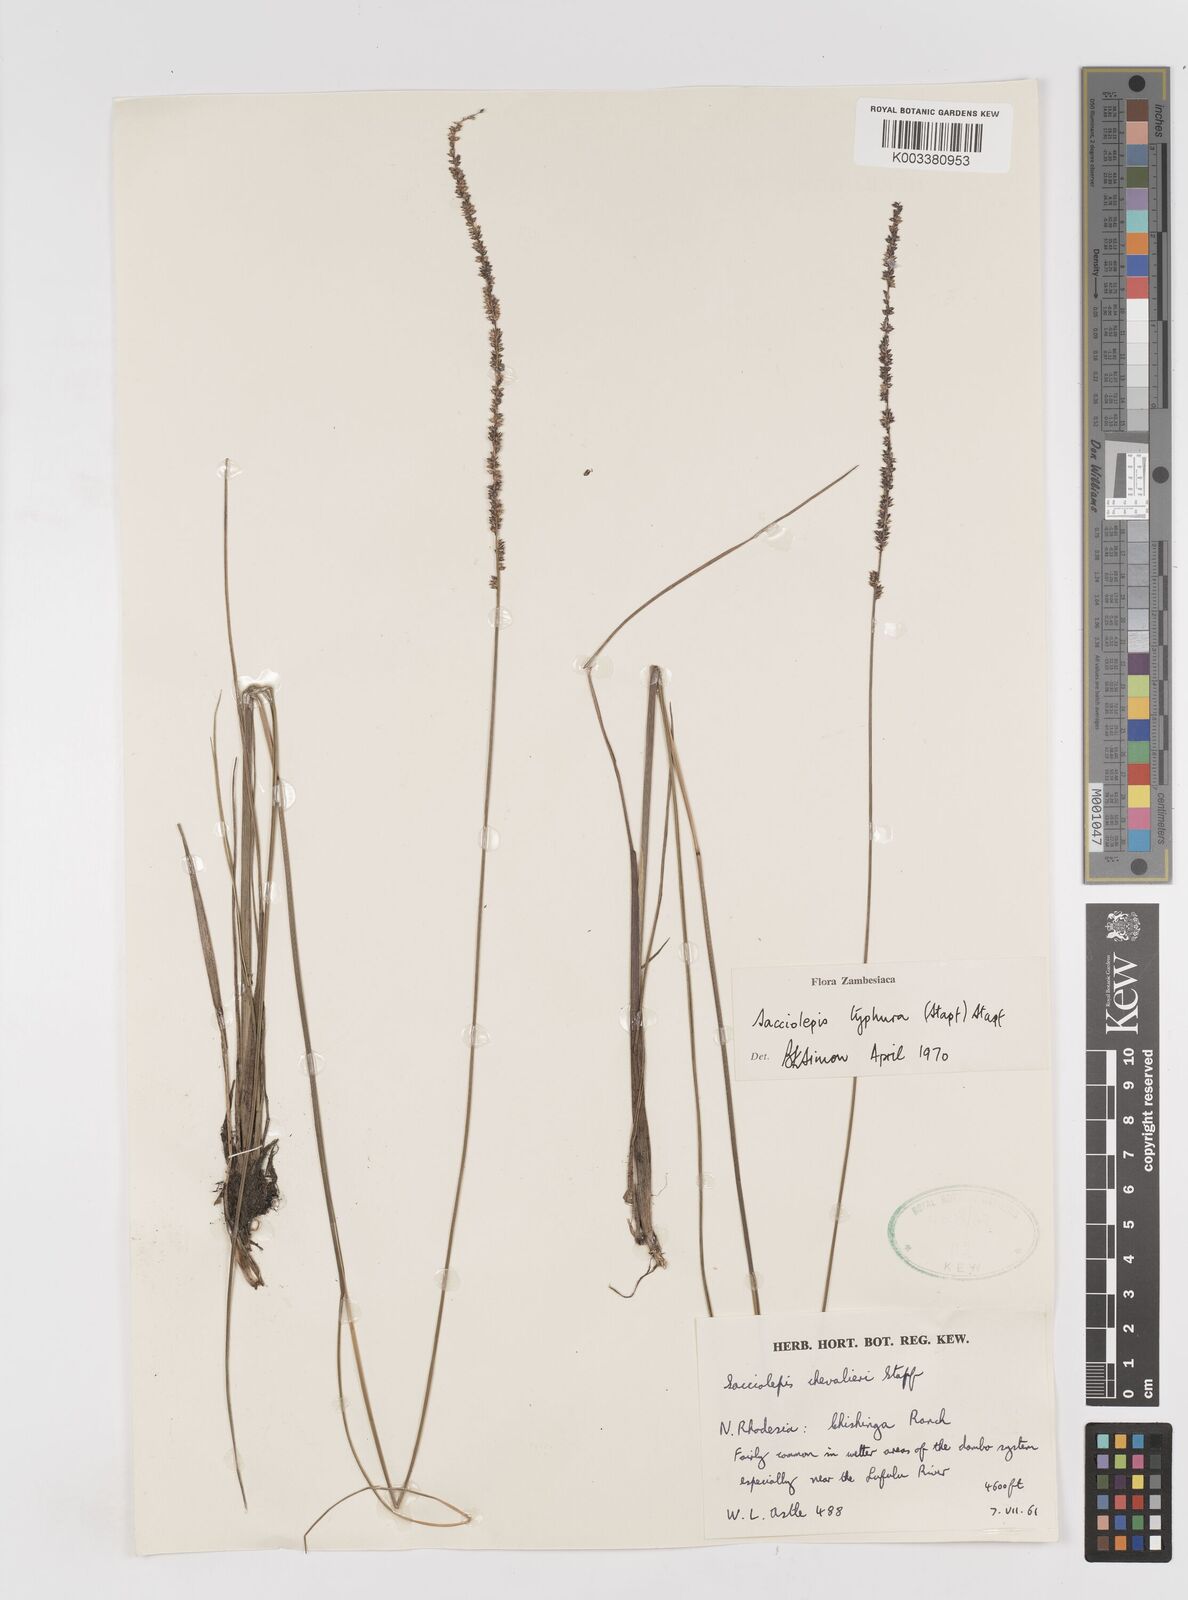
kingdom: Plantae
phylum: Tracheophyta
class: Liliopsida
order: Poales
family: Poaceae
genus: Sacciolepis
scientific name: Sacciolepis typhura
